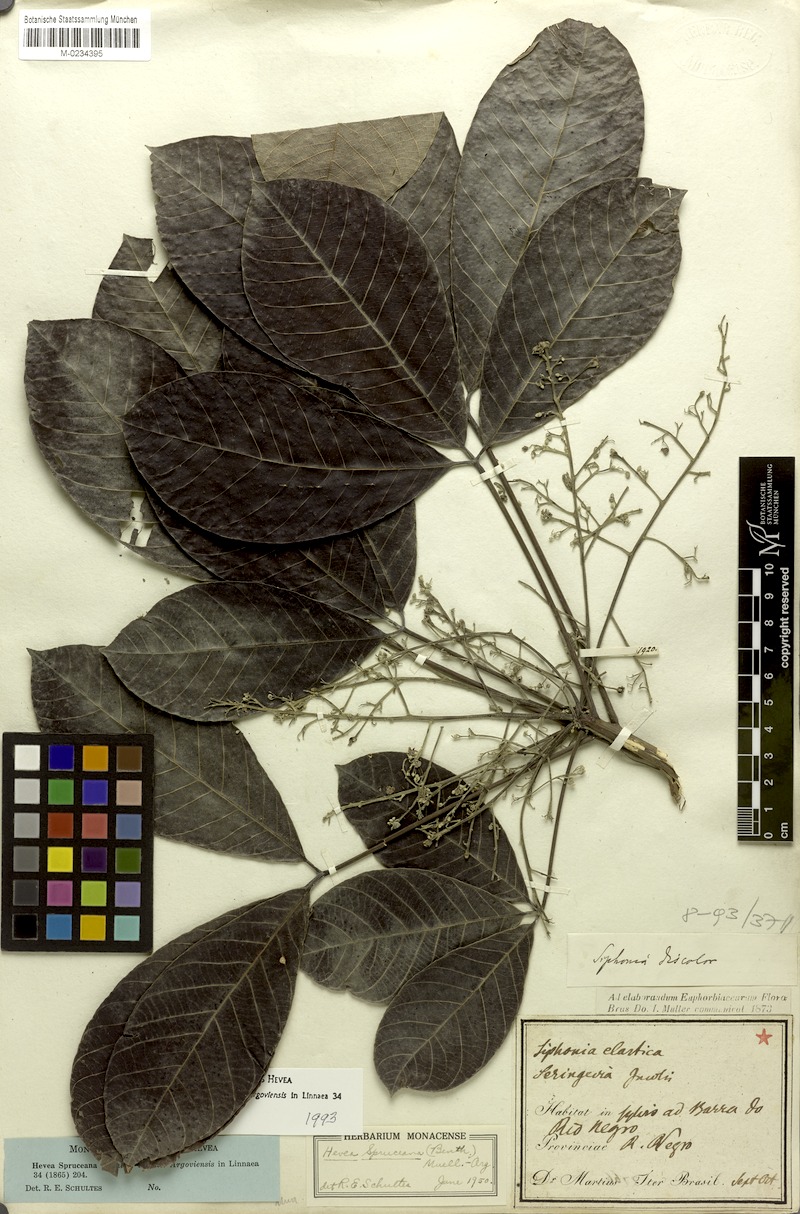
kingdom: Plantae
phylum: Tracheophyta
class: Magnoliopsida
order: Malpighiales
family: Euphorbiaceae
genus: Hevea
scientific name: Hevea spruceana
